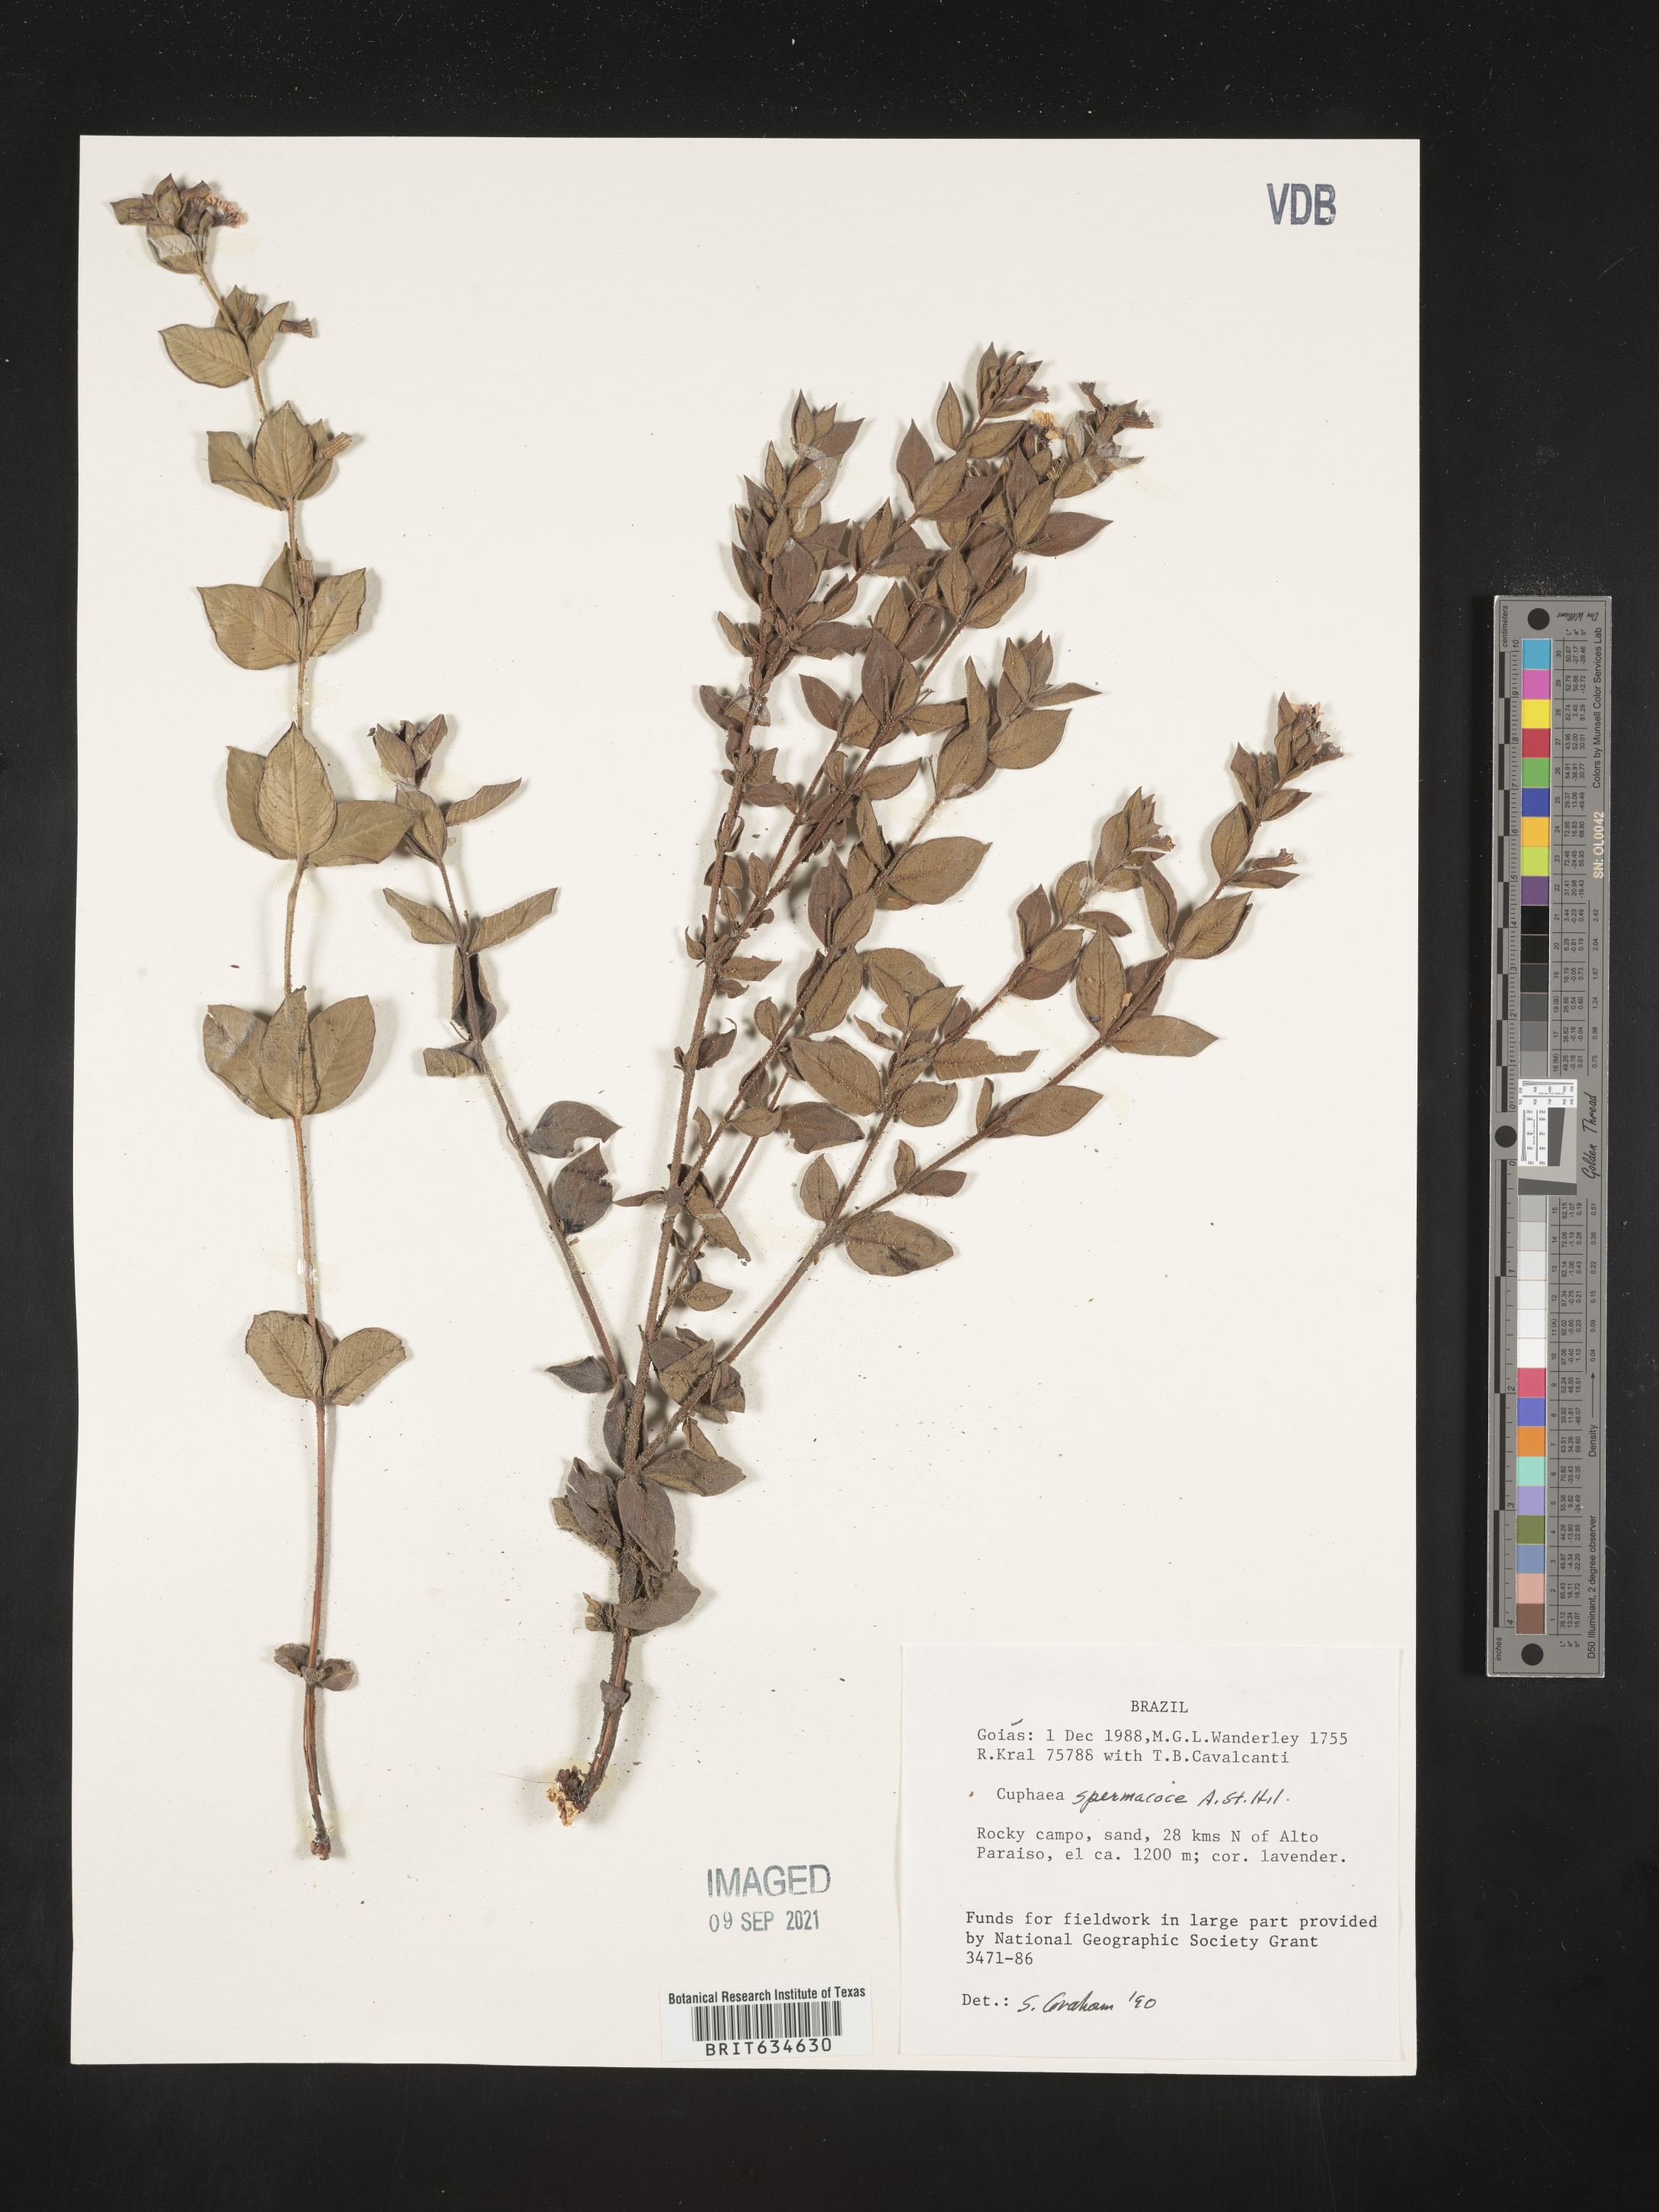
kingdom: Plantae
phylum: Tracheophyta
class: Magnoliopsida
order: Myrtales
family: Lythraceae
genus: Cuphea
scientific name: Cuphea
